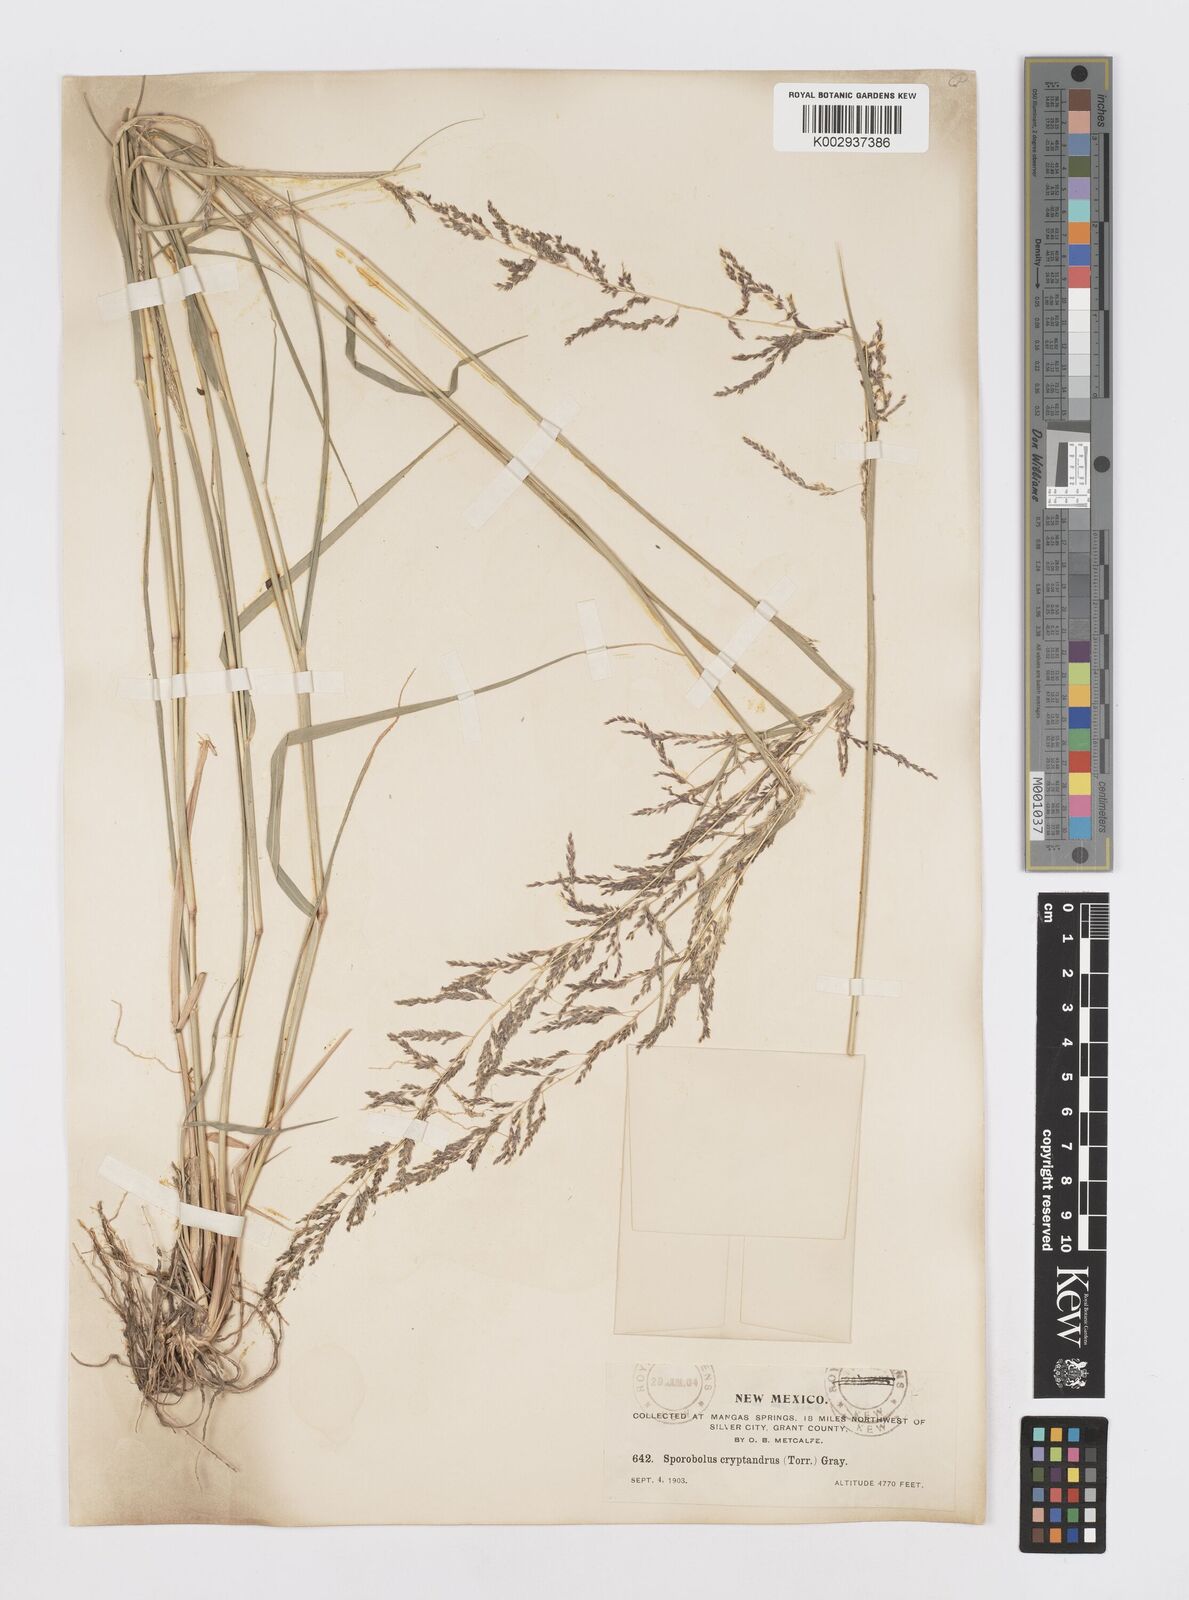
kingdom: Plantae
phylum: Tracheophyta
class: Liliopsida
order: Poales
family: Poaceae
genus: Sporobolus
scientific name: Sporobolus cryptandrus
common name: Sand dropseed
